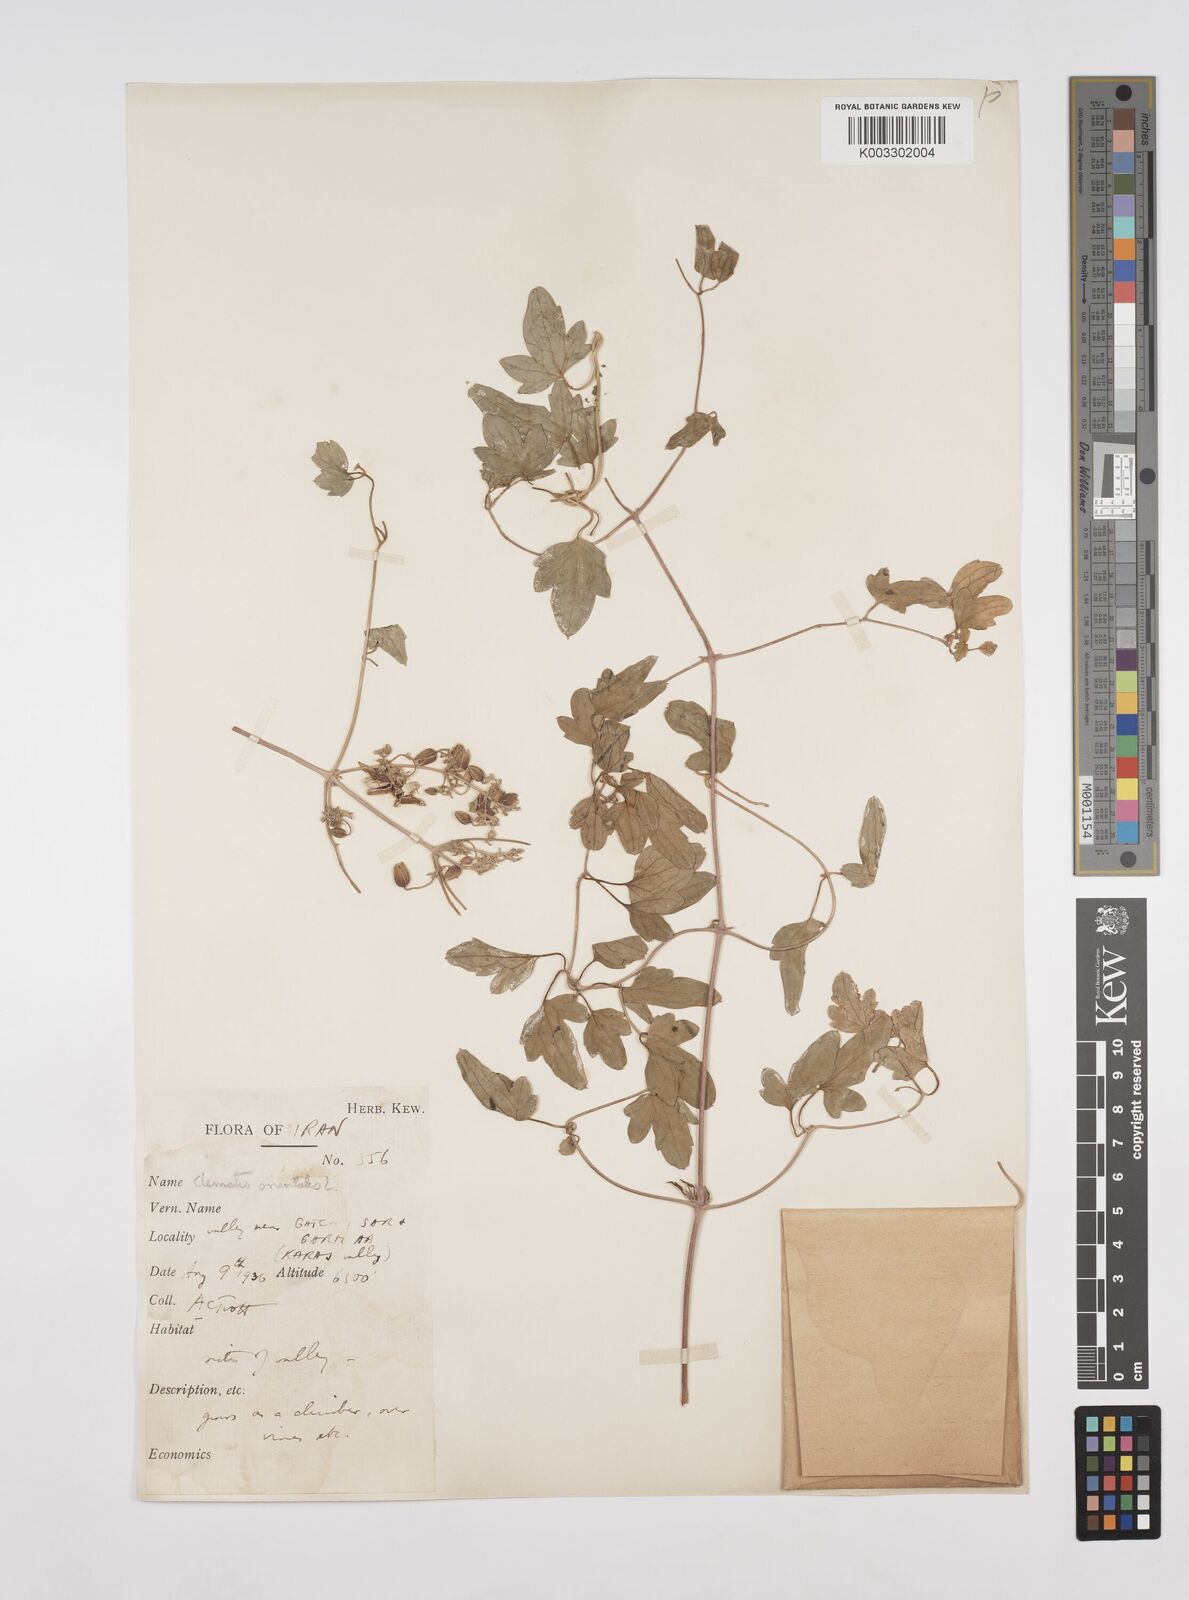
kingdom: Plantae
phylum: Tracheophyta
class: Magnoliopsida
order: Ranunculales
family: Ranunculaceae
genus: Clematis
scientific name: Clematis orientalis
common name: Oriental virgin's-bower
